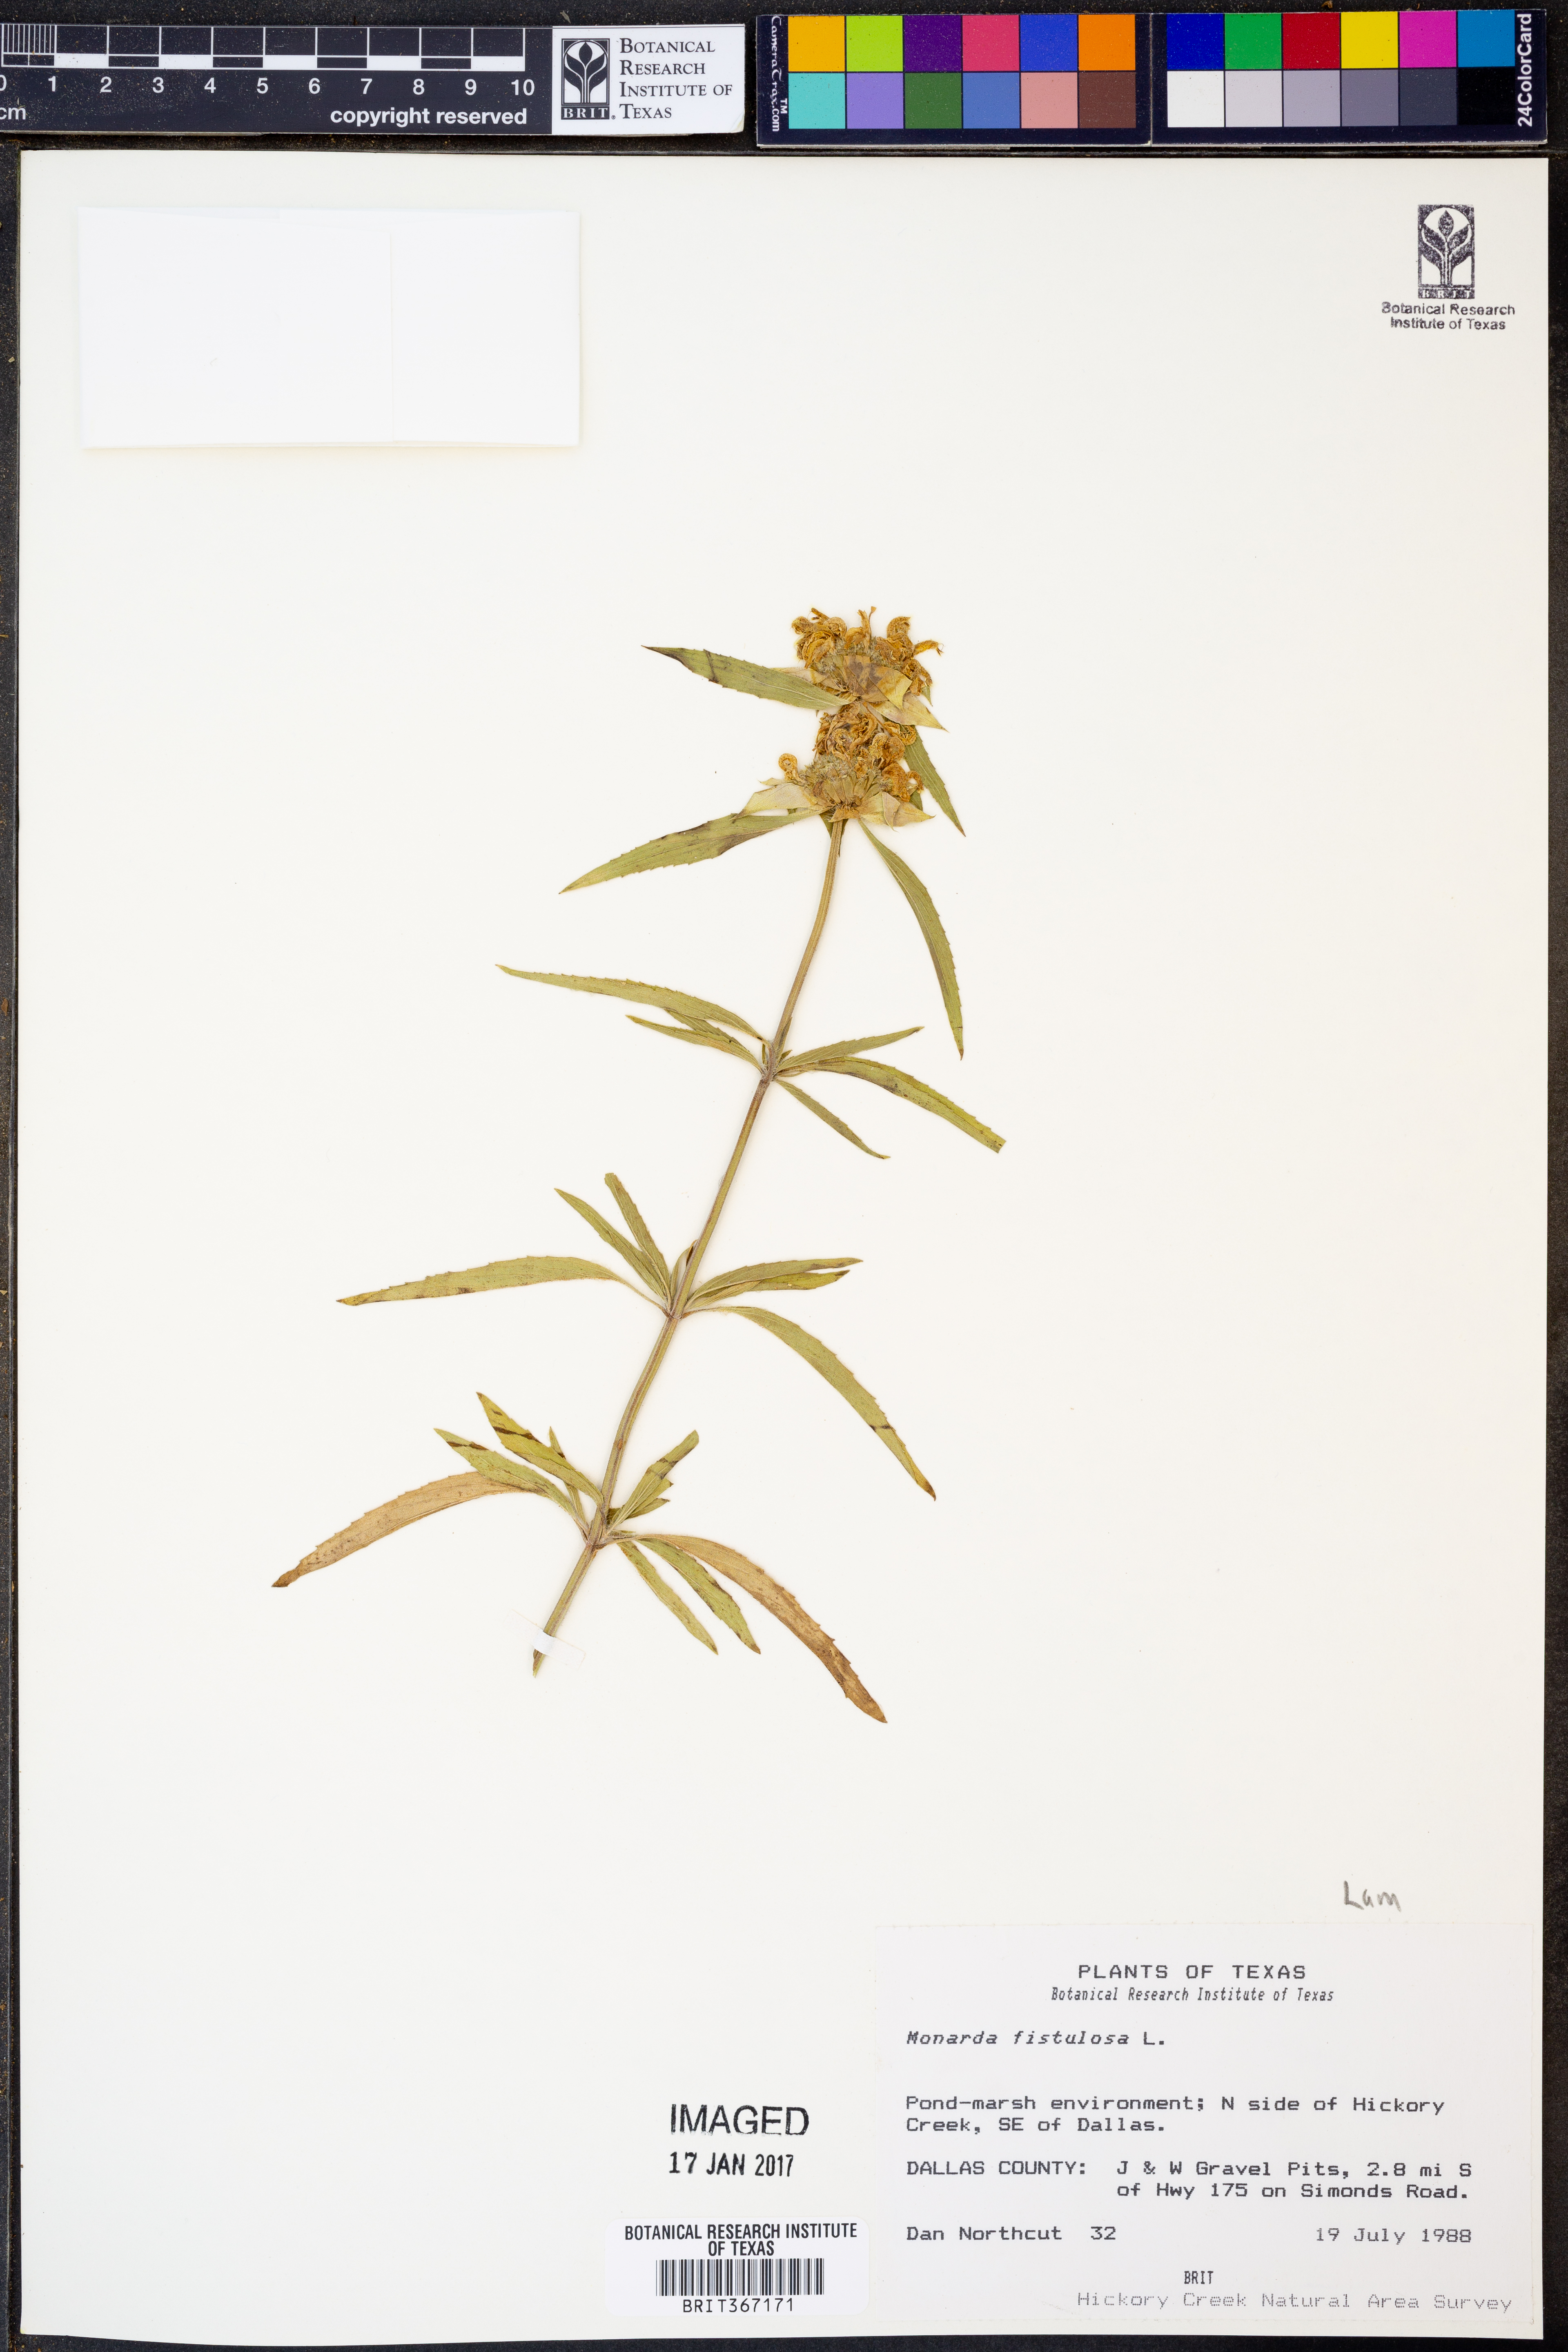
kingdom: Plantae
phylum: Tracheophyta
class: Magnoliopsida
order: Lamiales
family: Lamiaceae
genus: Monarda
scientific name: Monarda punctata
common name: Dotted monarda
